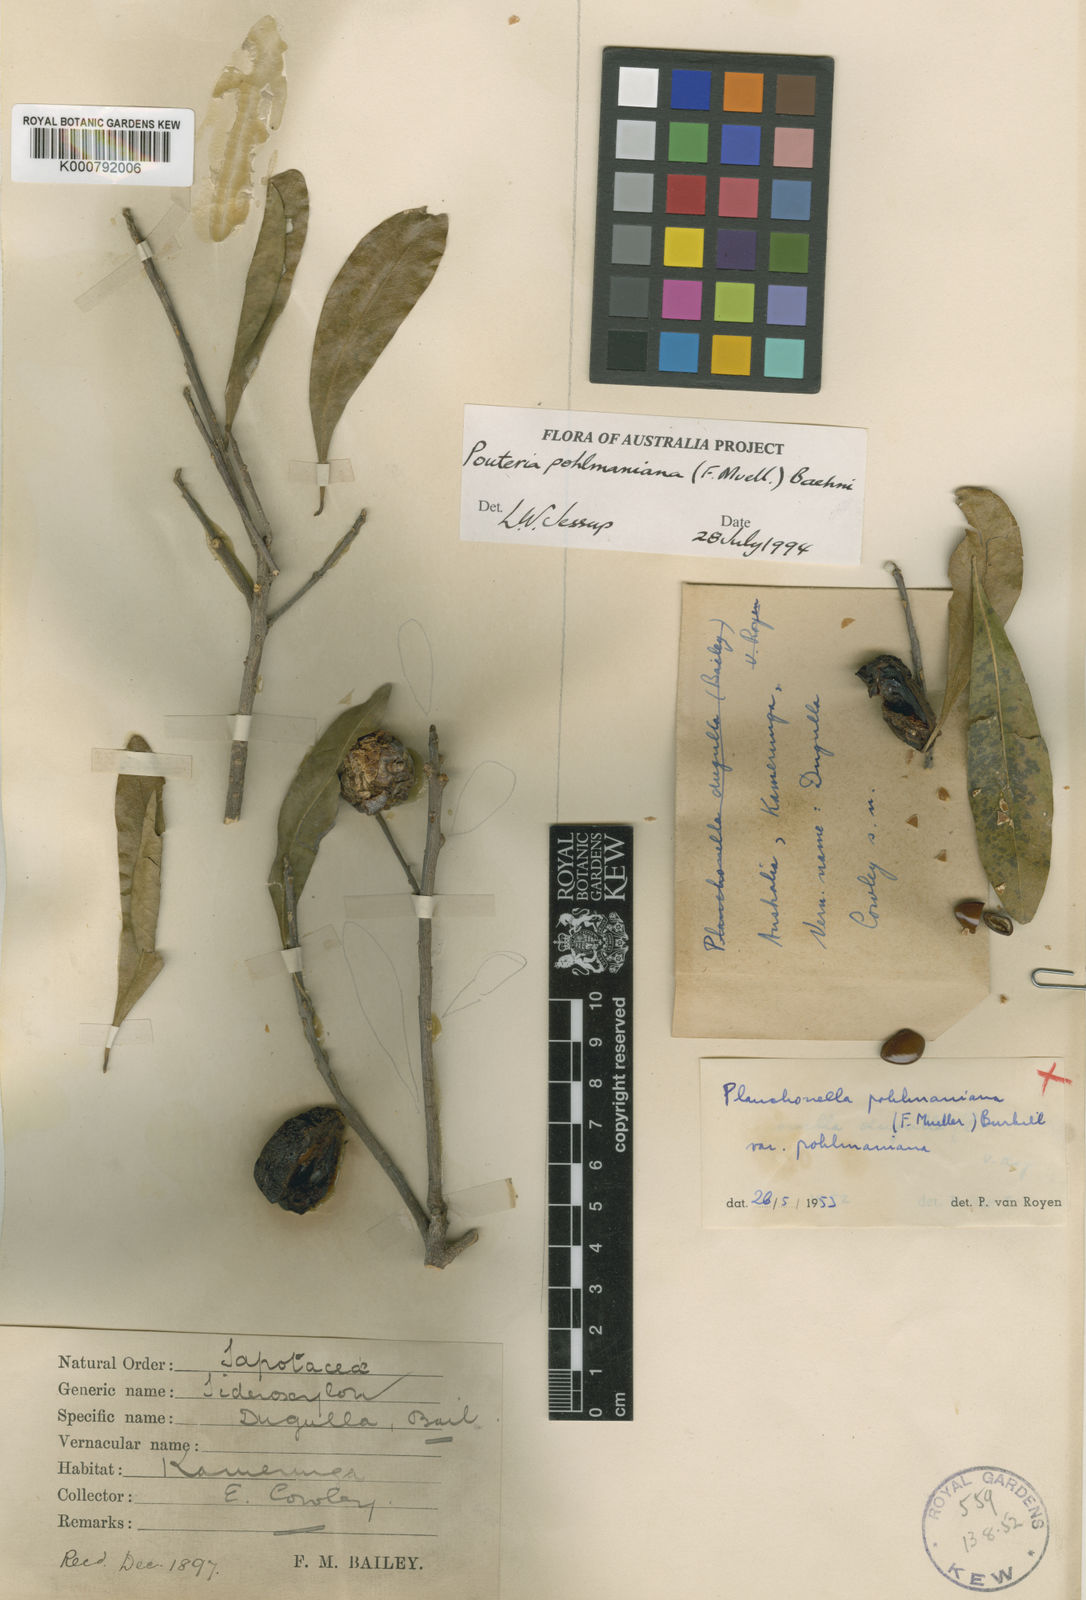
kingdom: Plantae
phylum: Tracheophyta
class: Magnoliopsida
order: Ericales
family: Sapotaceae
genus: Planchonella
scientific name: Planchonella pohlmaniana
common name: Yellow boxwood
